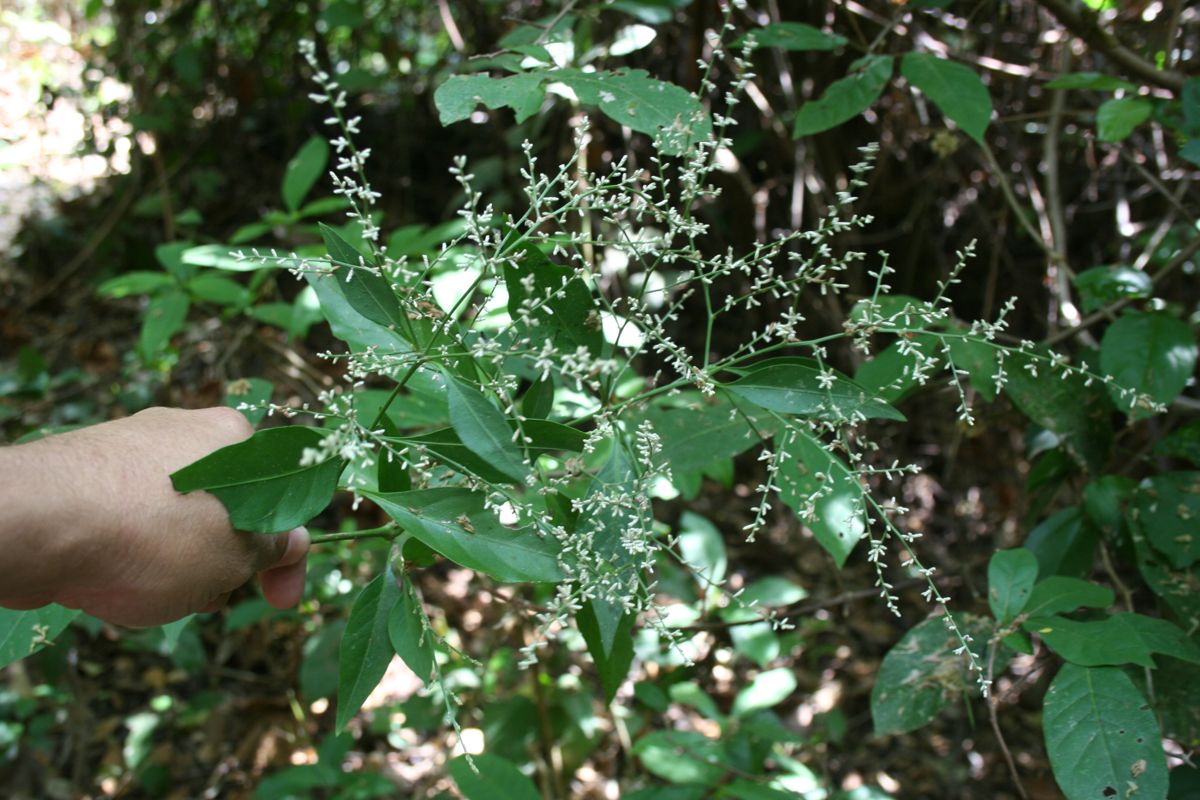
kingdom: Plantae
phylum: Tracheophyta
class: Magnoliopsida
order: Caryophyllales
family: Amaranthaceae
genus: Iresine
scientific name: Iresine nigra
